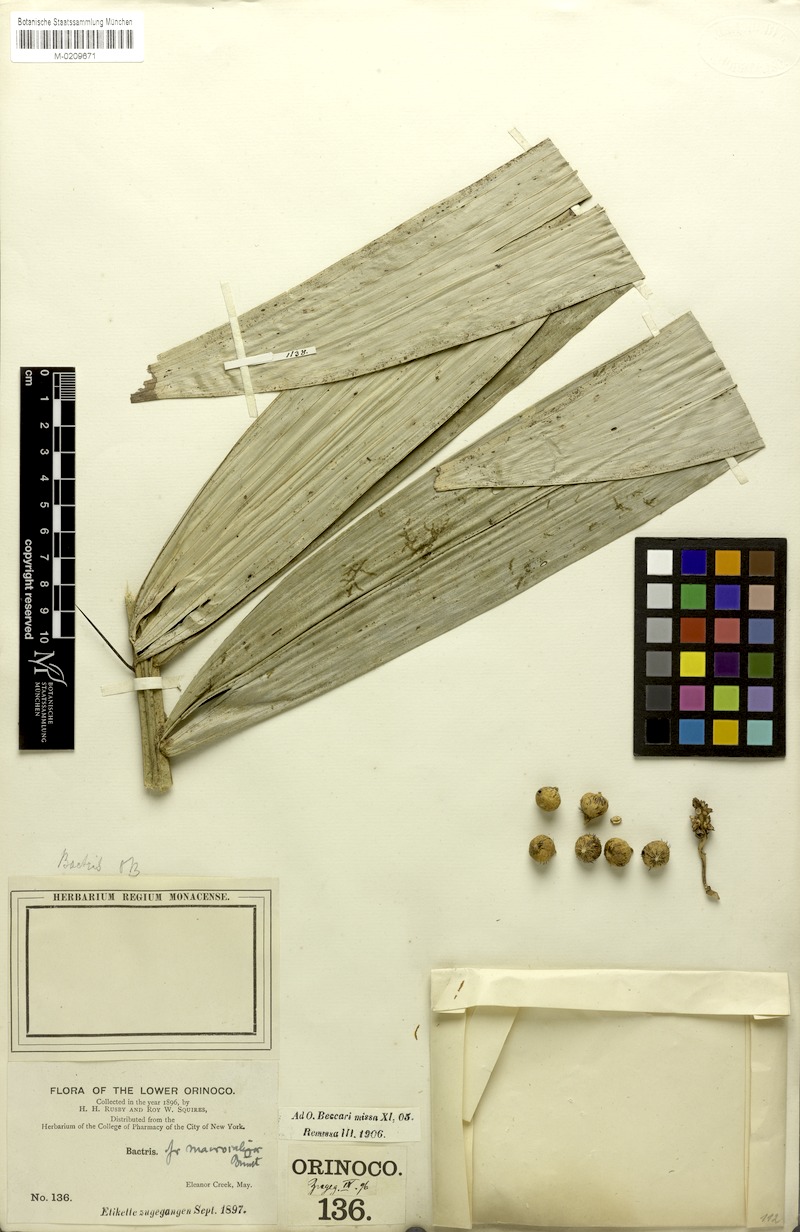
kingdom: Plantae
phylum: Tracheophyta
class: Liliopsida
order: Arecales
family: Arecaceae
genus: Bactris
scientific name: Bactris acanthocarpa
